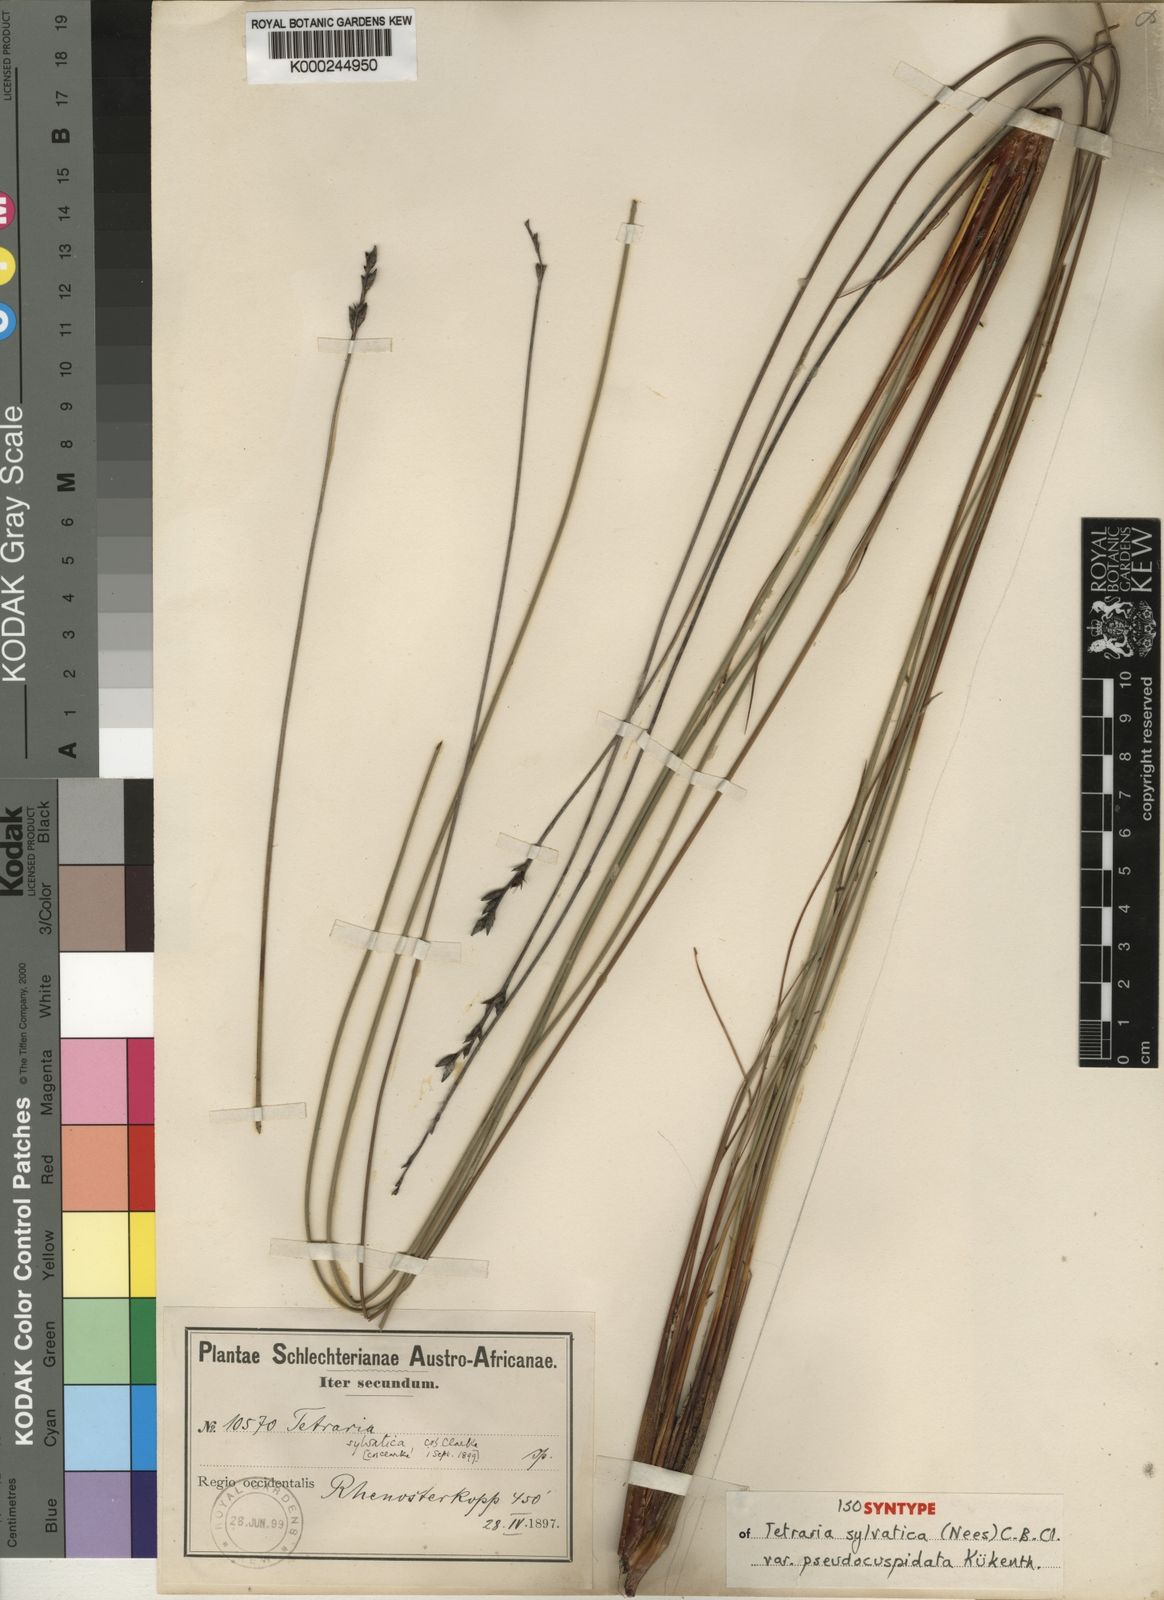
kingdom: Plantae
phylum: Tracheophyta
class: Liliopsida
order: Poales
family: Cyperaceae
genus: Schoenus
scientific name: Schoenus arenicola
